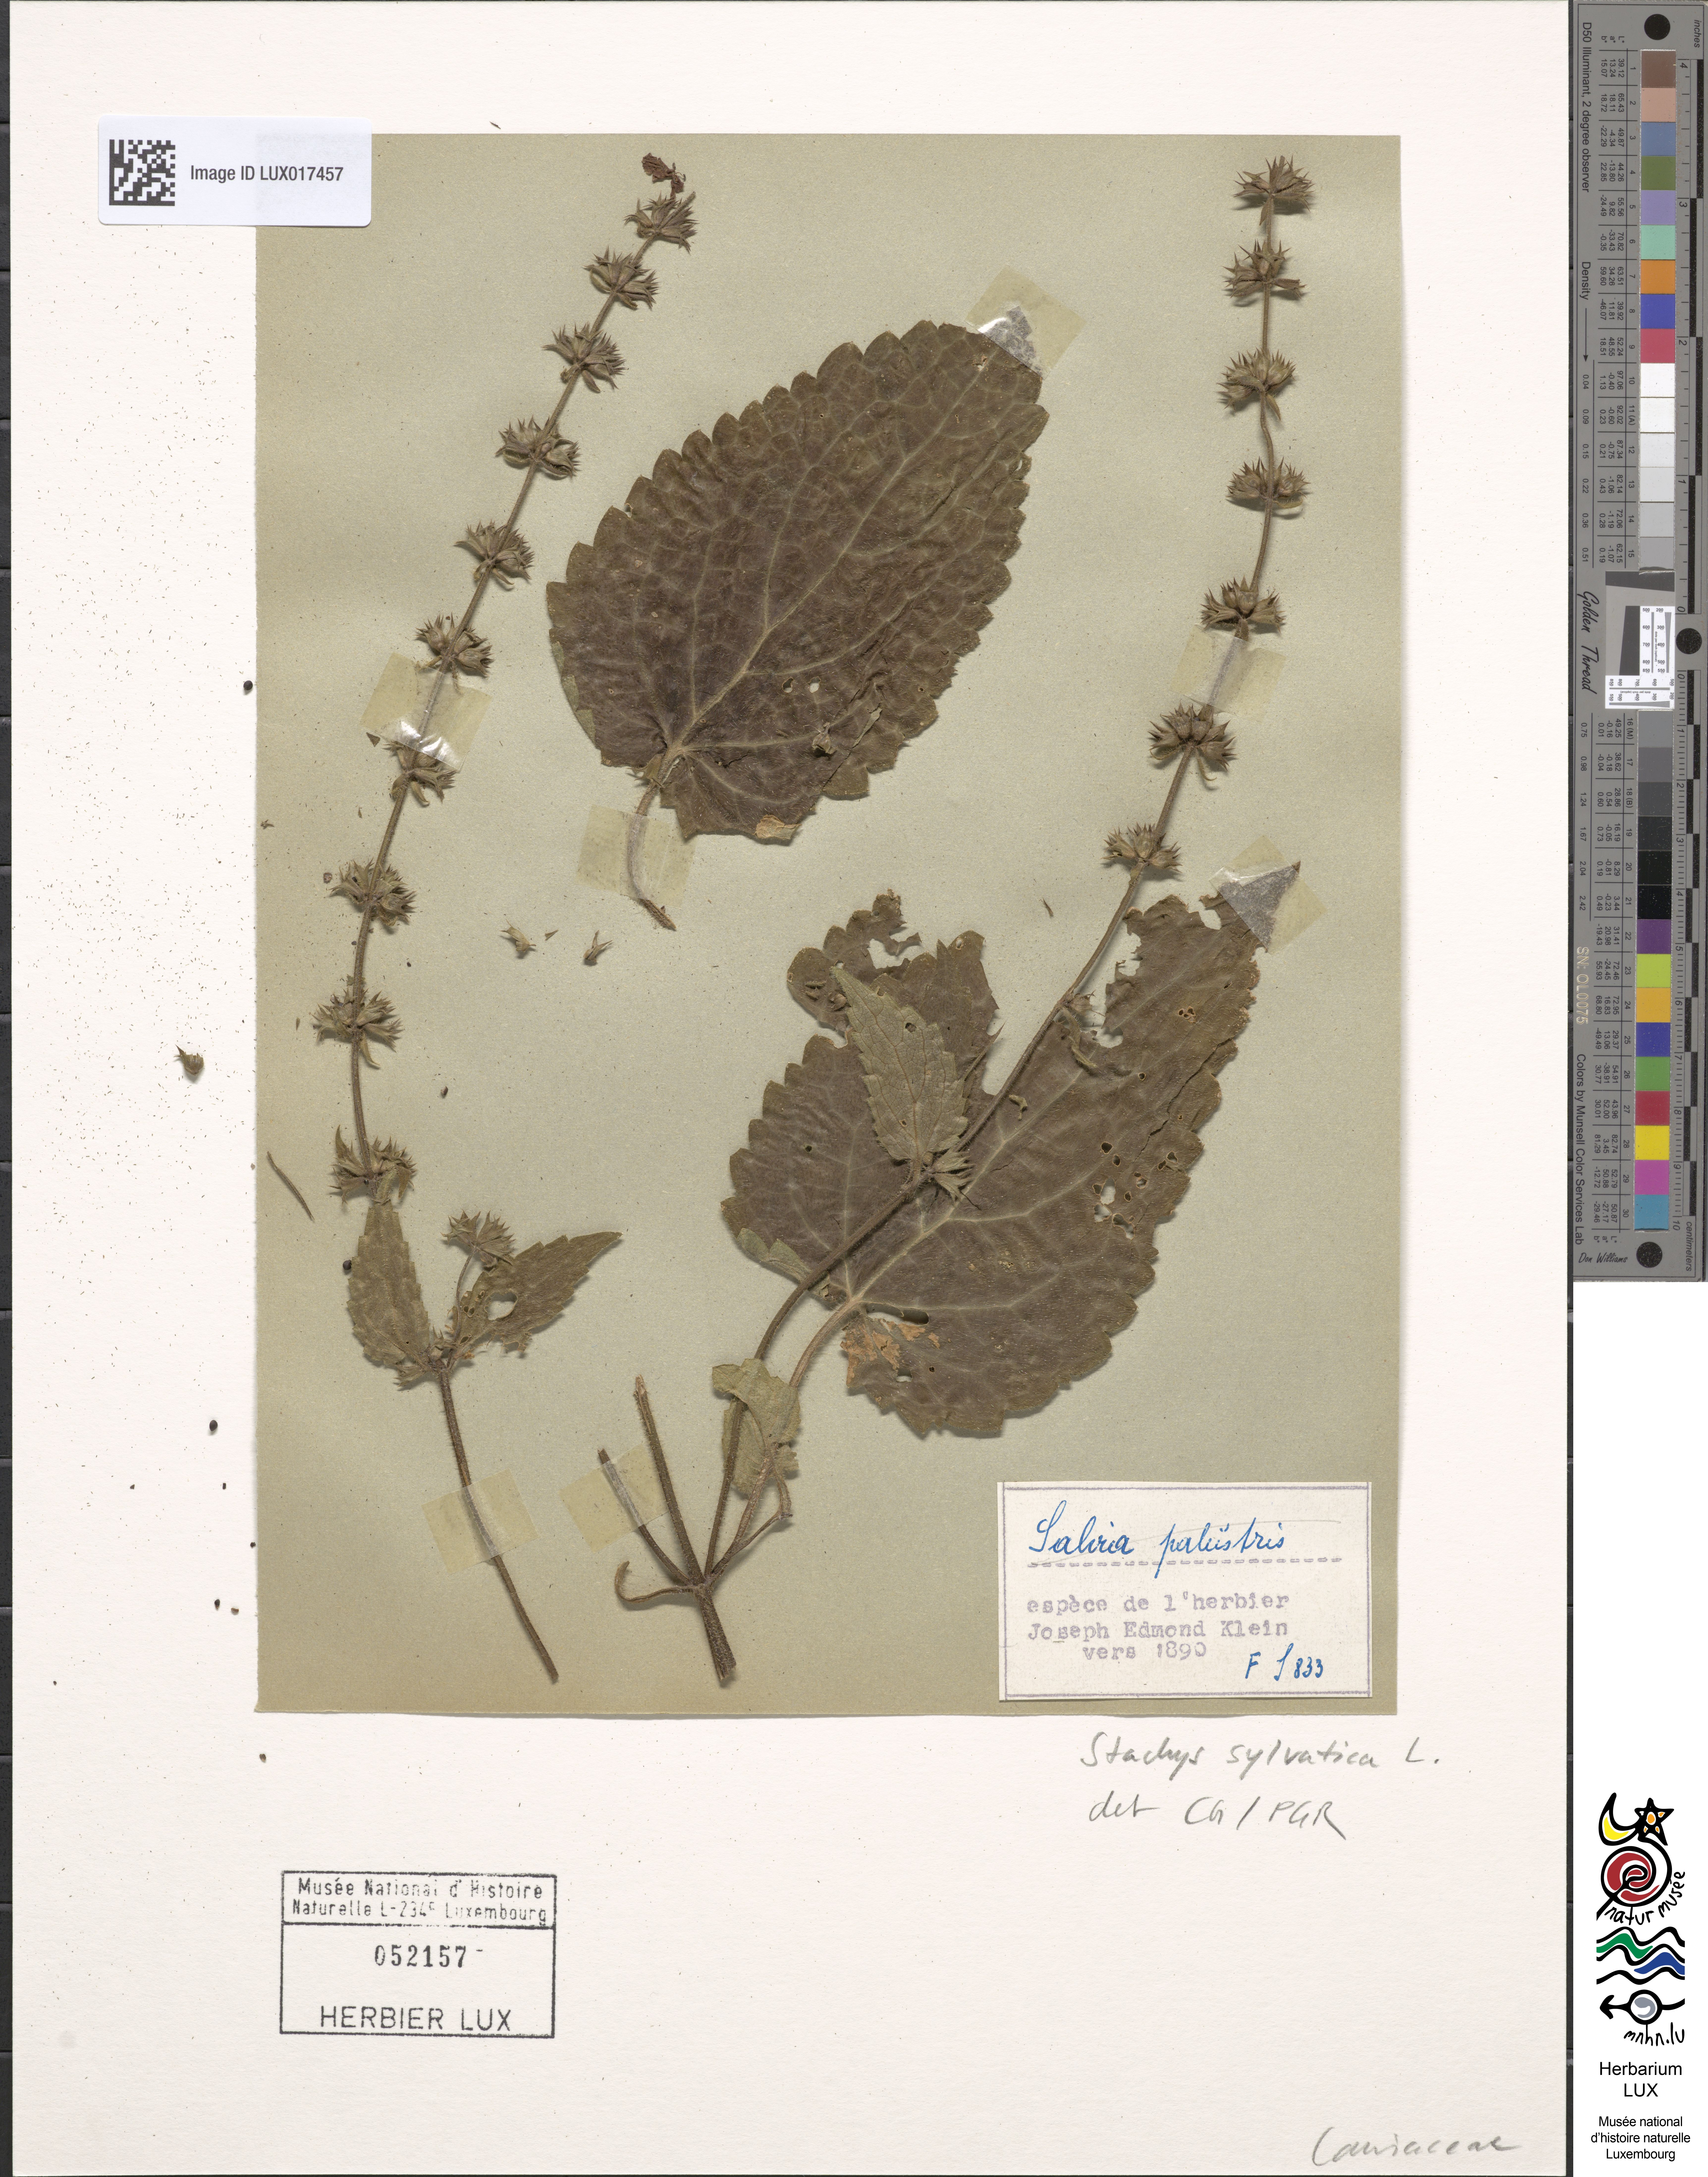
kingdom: Plantae
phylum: Tracheophyta
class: Magnoliopsida
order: Lamiales
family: Lamiaceae
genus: Stachys
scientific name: Stachys sylvatica
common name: Hedge woundwort
